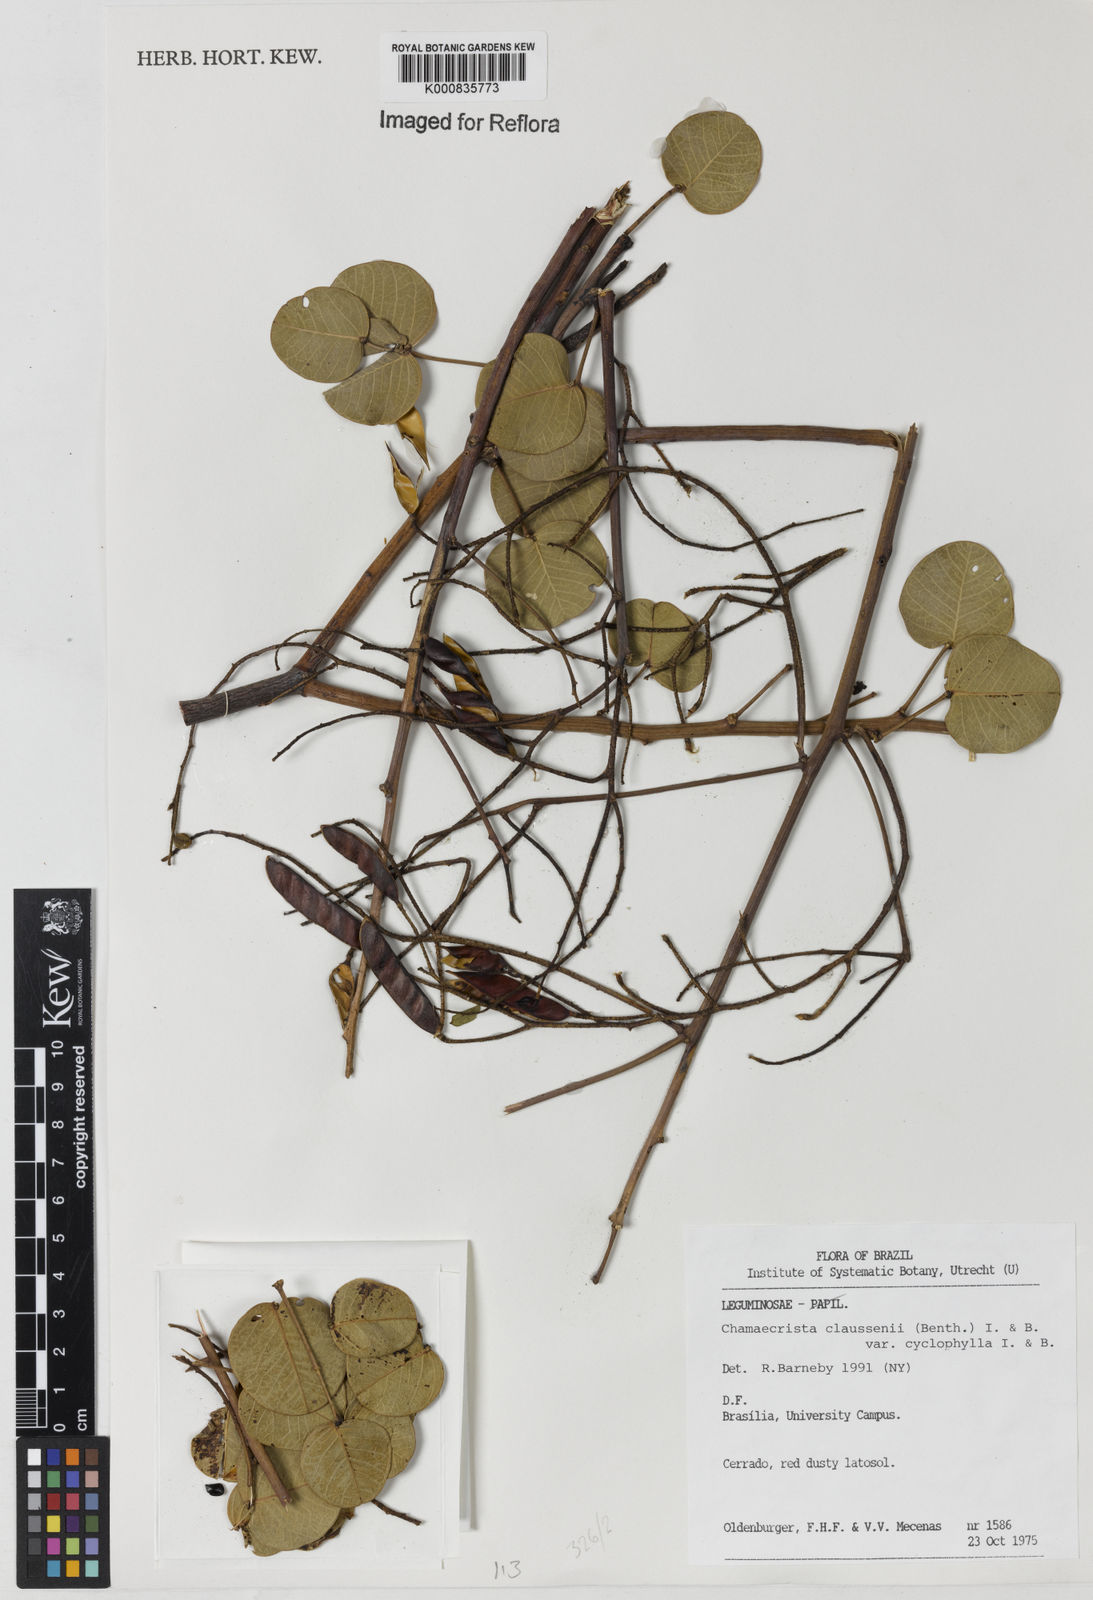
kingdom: Plantae
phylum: Tracheophyta
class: Magnoliopsida
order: Fabales
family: Fabaceae
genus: Chamaecrista
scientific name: Chamaecrista cyclophylla
